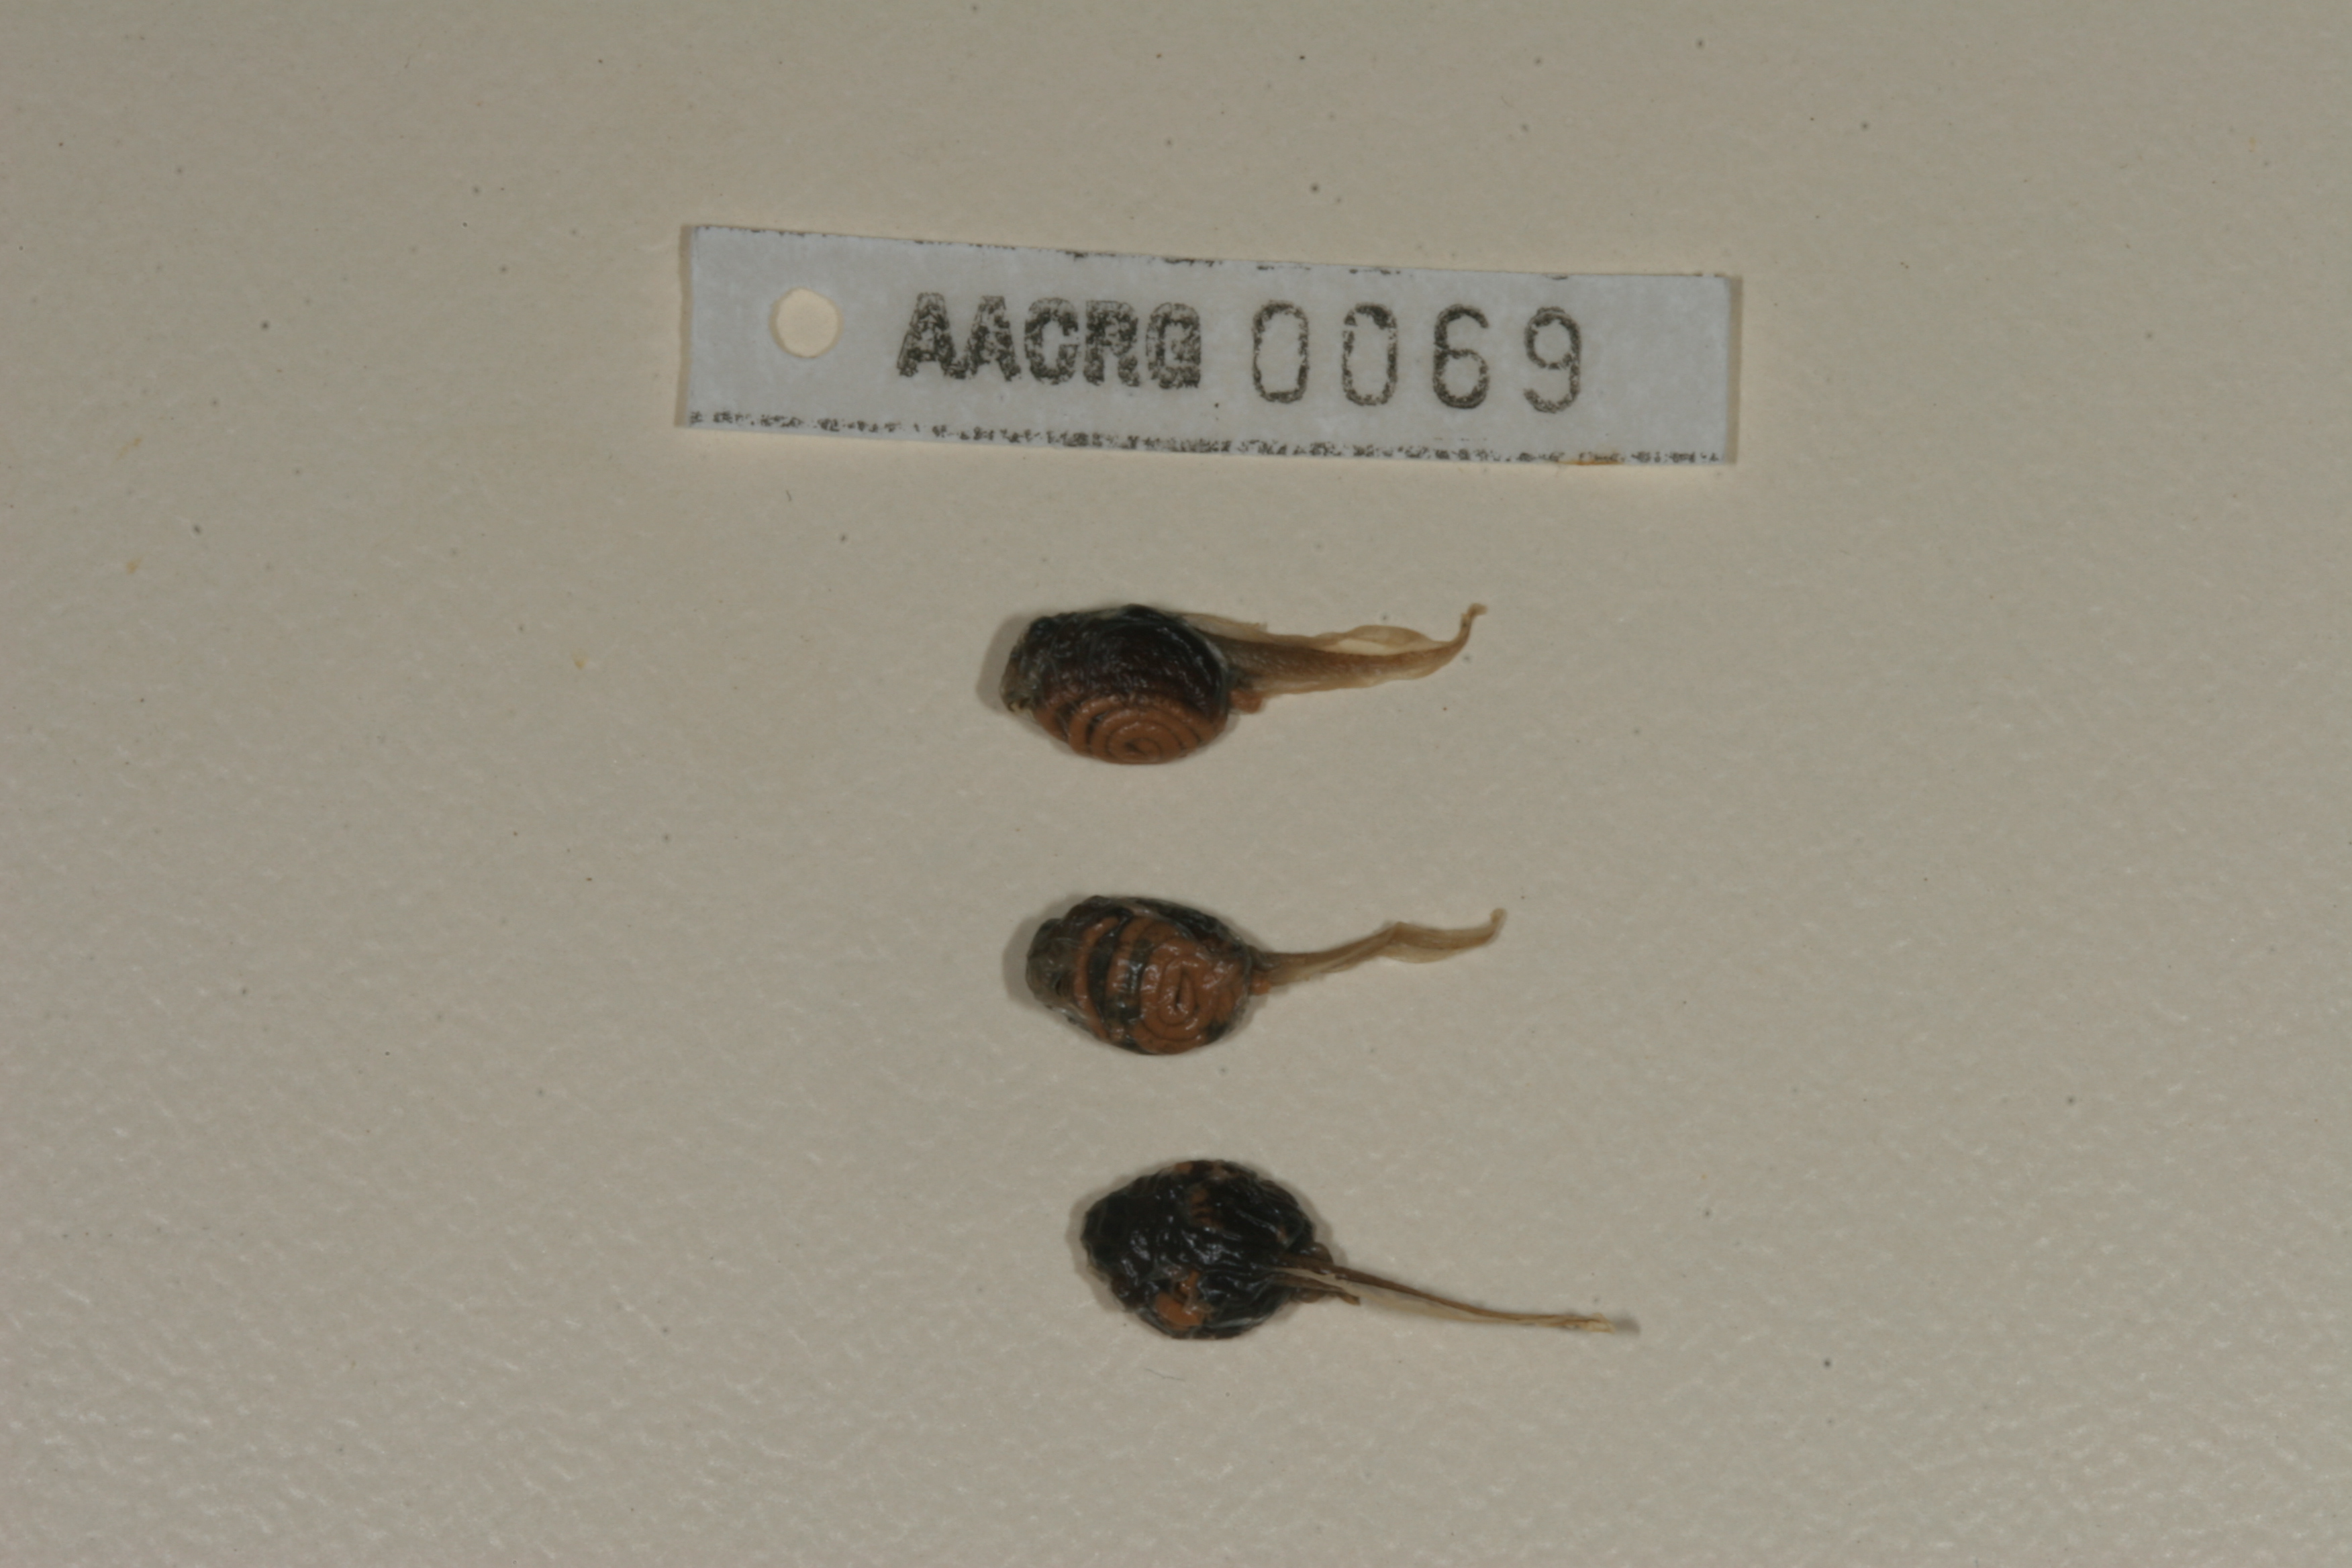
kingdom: Animalia
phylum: Chordata
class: Amphibia
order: Anura
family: Bufonidae
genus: Poyntonophrynus
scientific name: Poyntonophrynus vertebralis
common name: Southern pygmy toad
